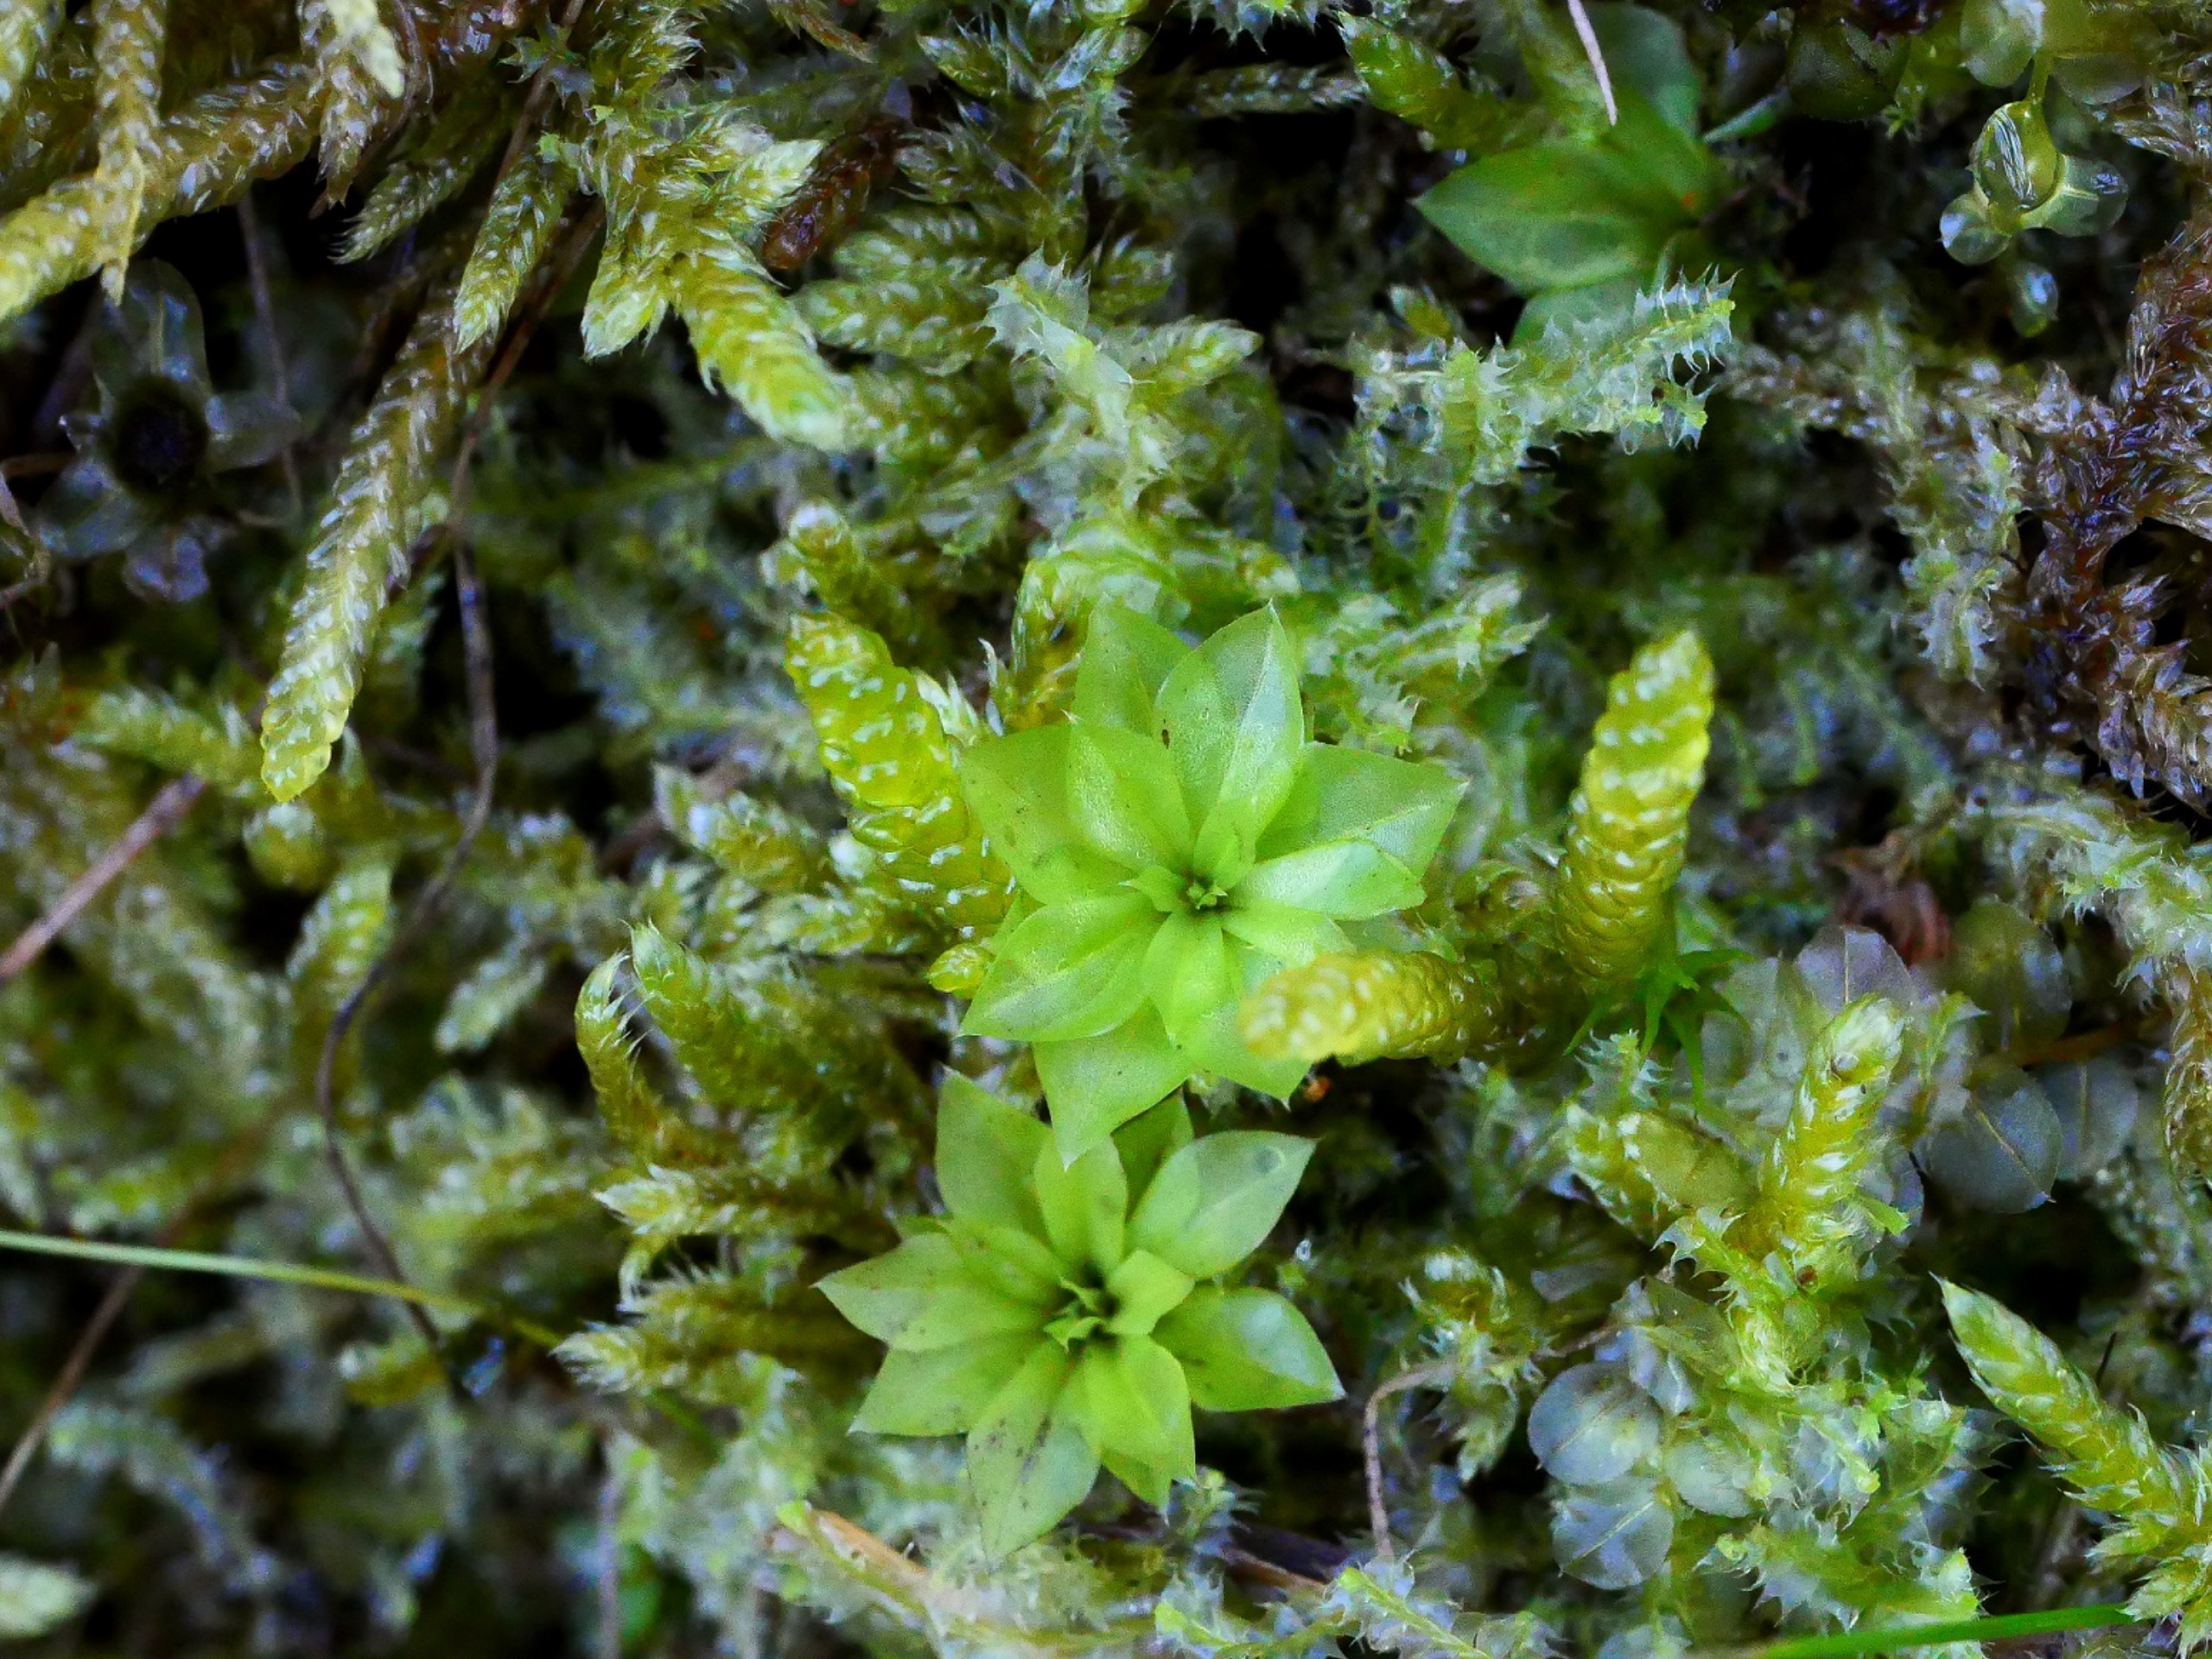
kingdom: Plantae
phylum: Bryophyta
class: Bryopsida
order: Bryales
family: Bryaceae
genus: Rhodobryum
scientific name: Rhodobryum roseum
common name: Stor rosetmos
